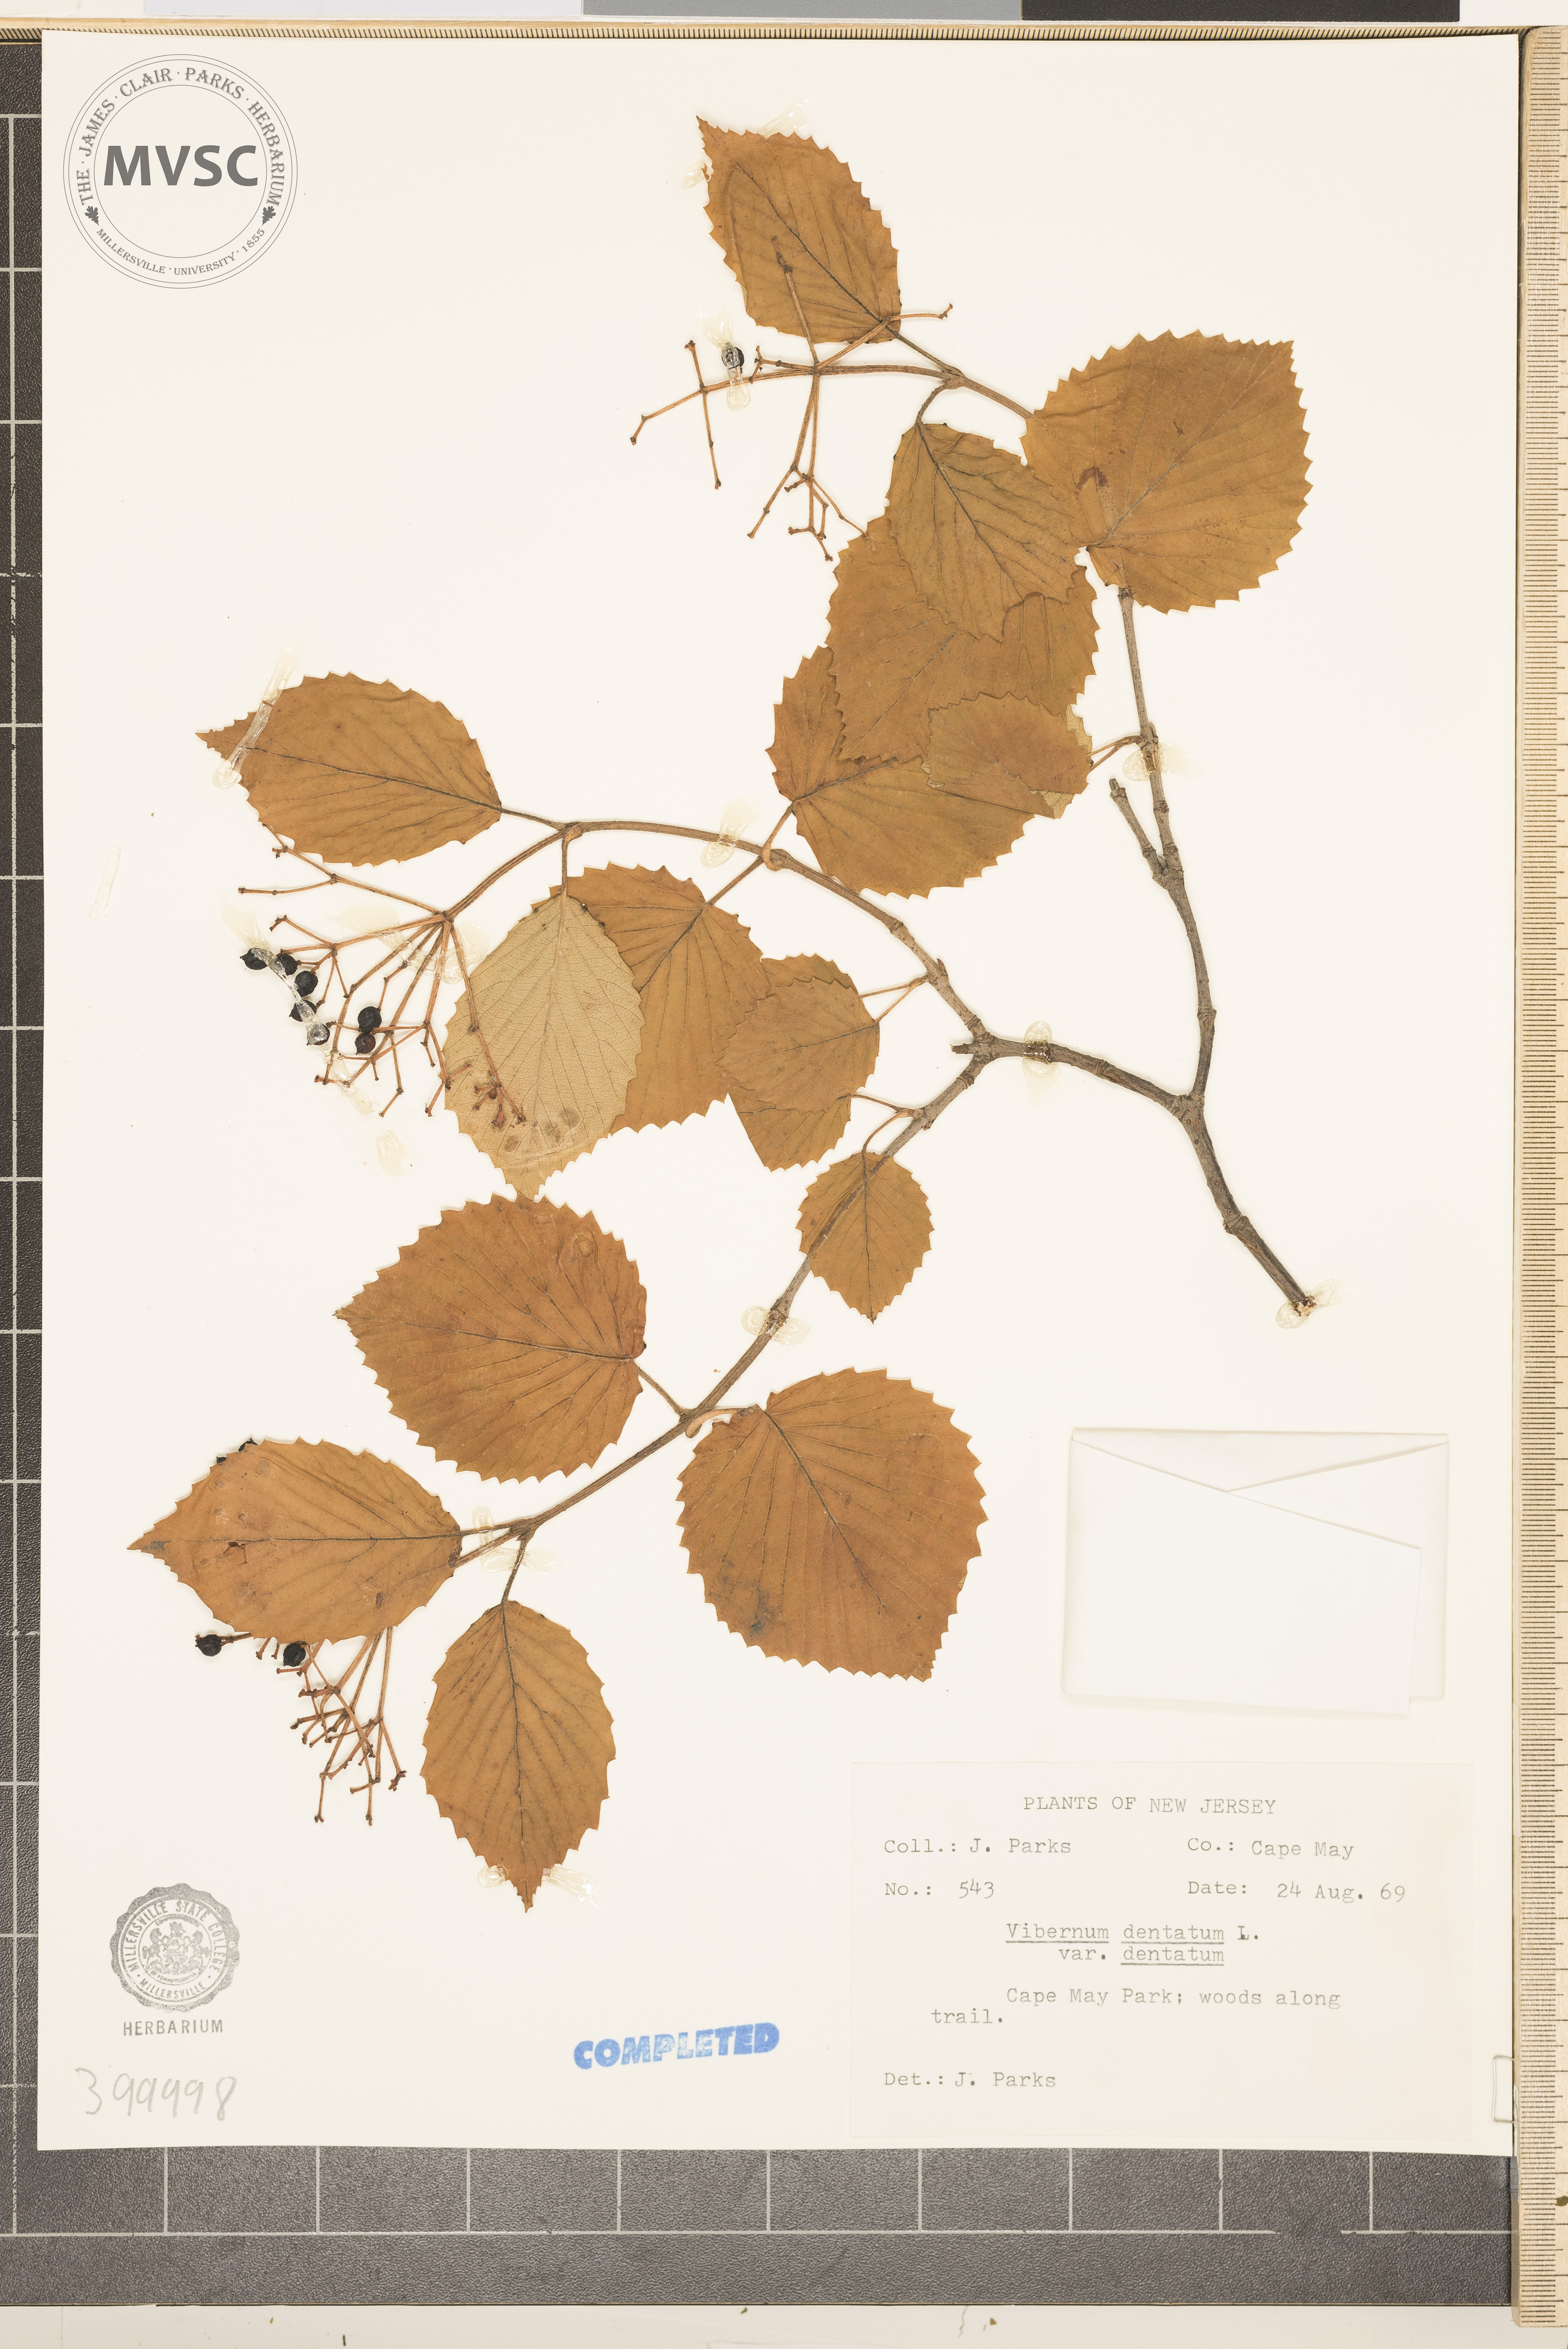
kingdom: Plantae
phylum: Tracheophyta
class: Magnoliopsida
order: Dipsacales
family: Viburnaceae
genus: Viburnum
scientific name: Viburnum dentatum
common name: viburnum
